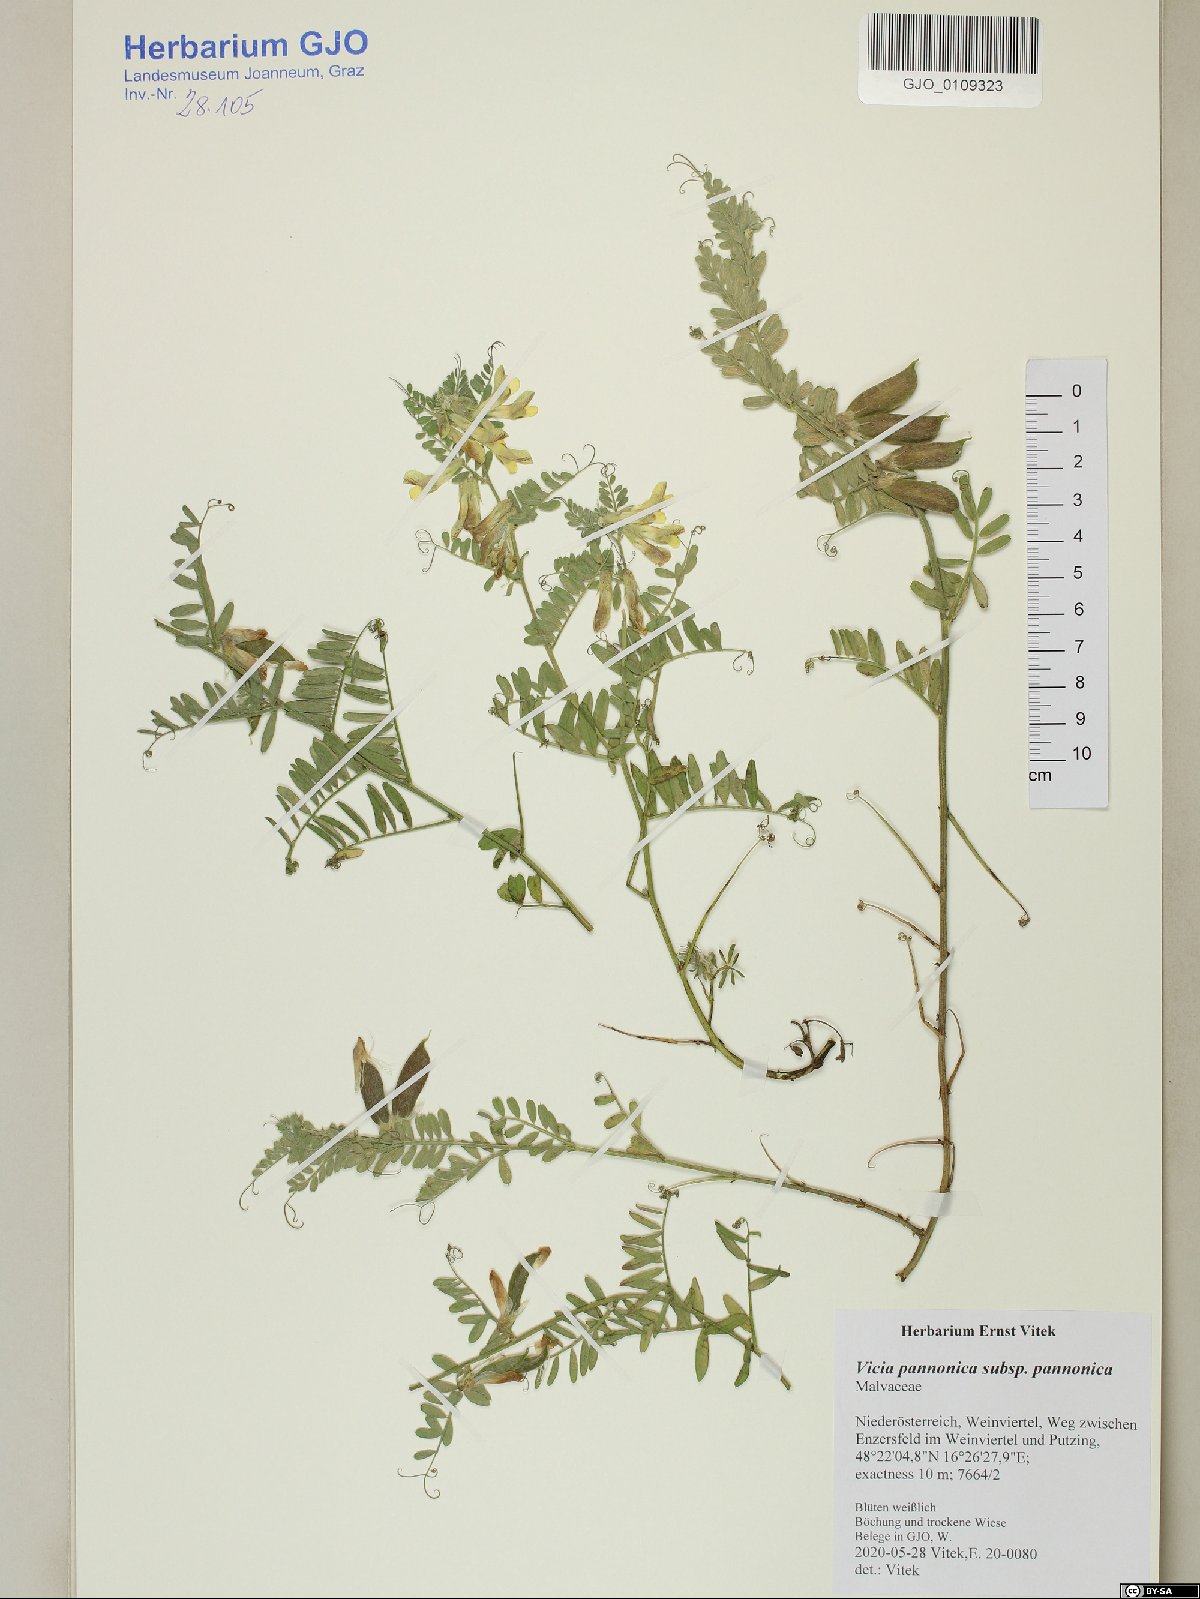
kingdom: Plantae
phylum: Tracheophyta
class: Magnoliopsida
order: Fabales
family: Fabaceae
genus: Vicia
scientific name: Vicia pannonica
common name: Hungarian vetch
